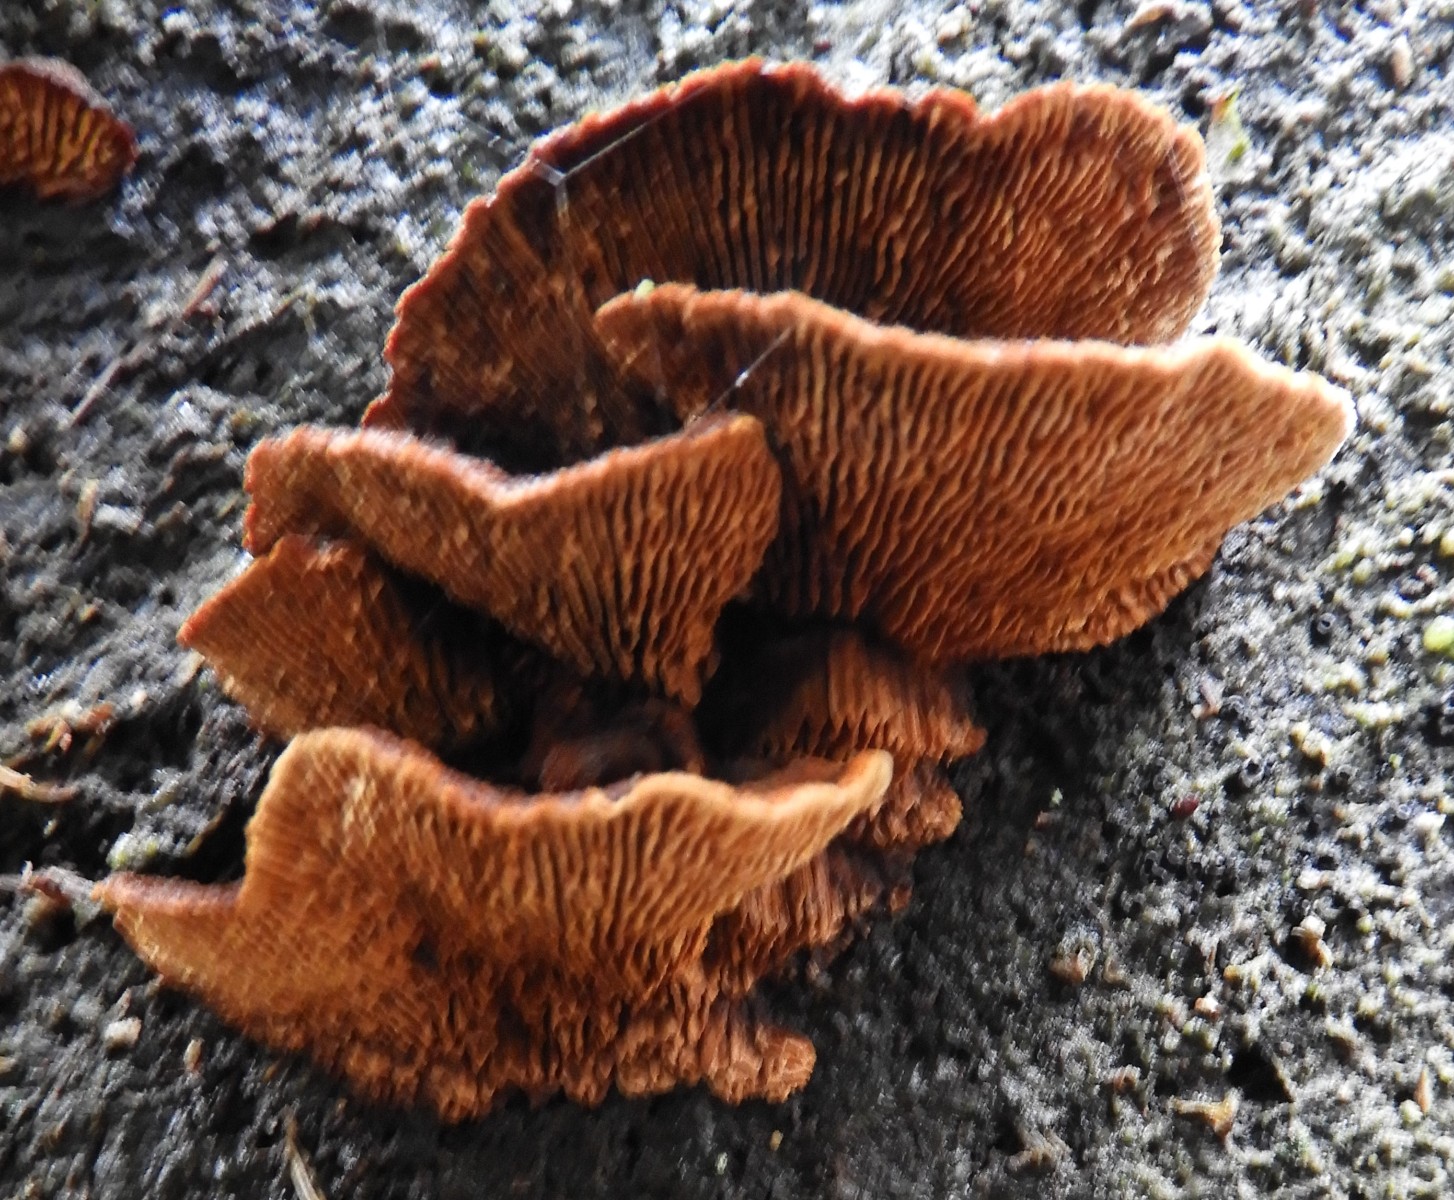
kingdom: Fungi
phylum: Basidiomycota
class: Agaricomycetes
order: Gloeophyllales
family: Gloeophyllaceae
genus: Gloeophyllum
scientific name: Gloeophyllum sepiarium
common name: fyrre-korkhat
